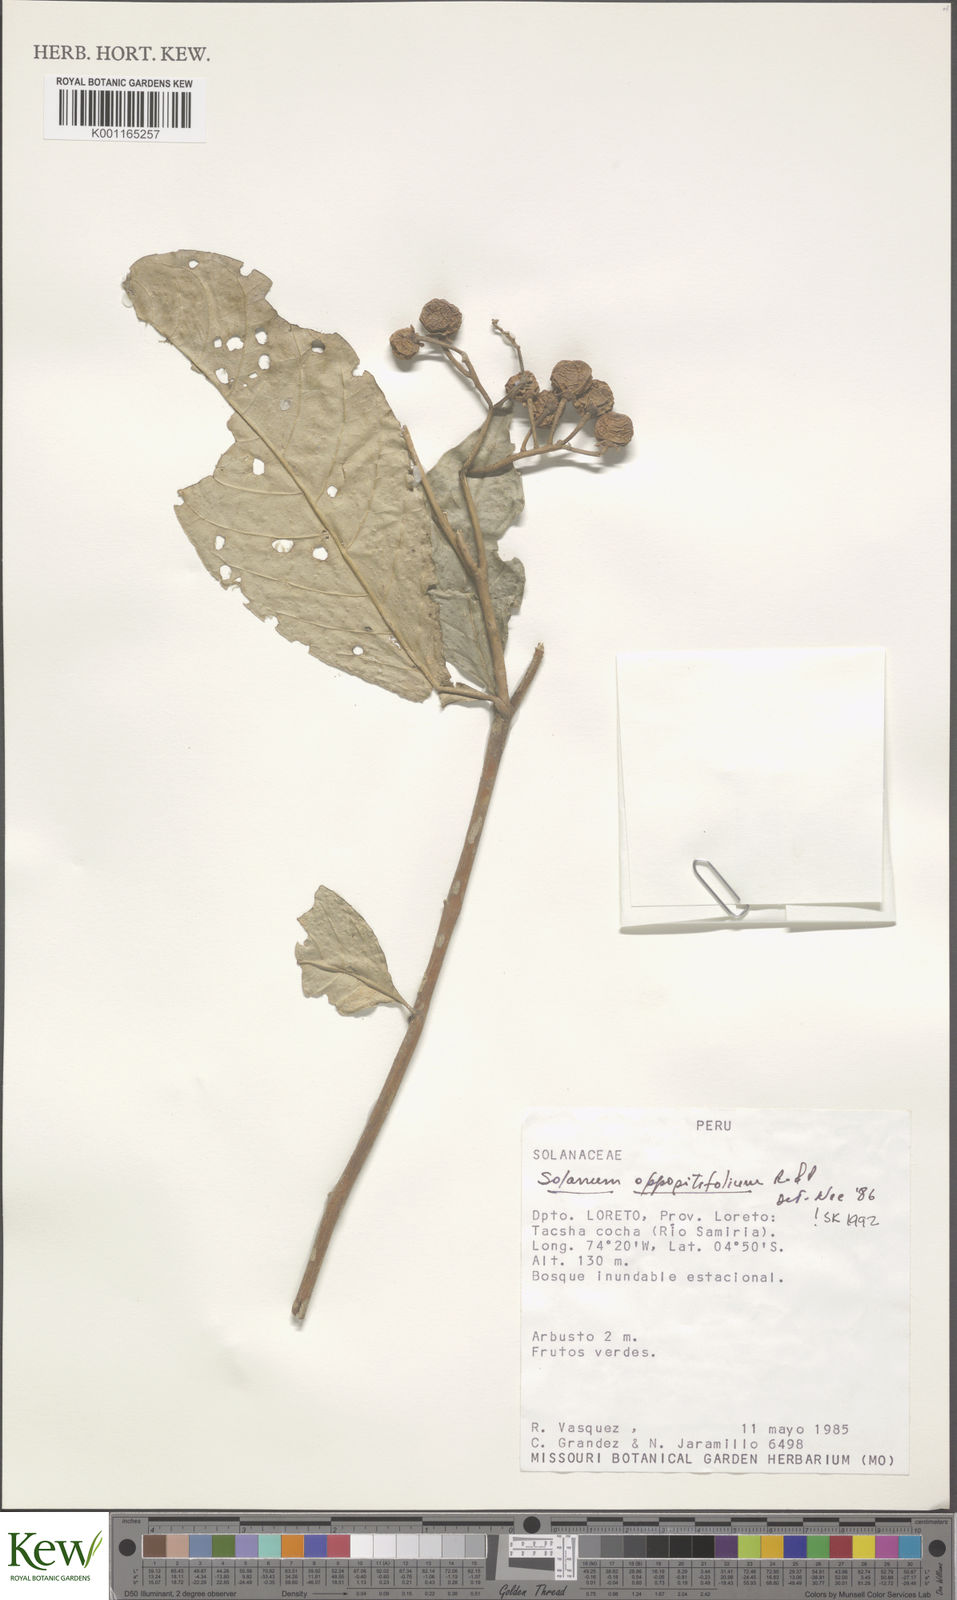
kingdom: Plantae
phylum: Tracheophyta
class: Magnoliopsida
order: Solanales
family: Solanaceae
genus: Solanum
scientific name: Solanum oppositifolium
